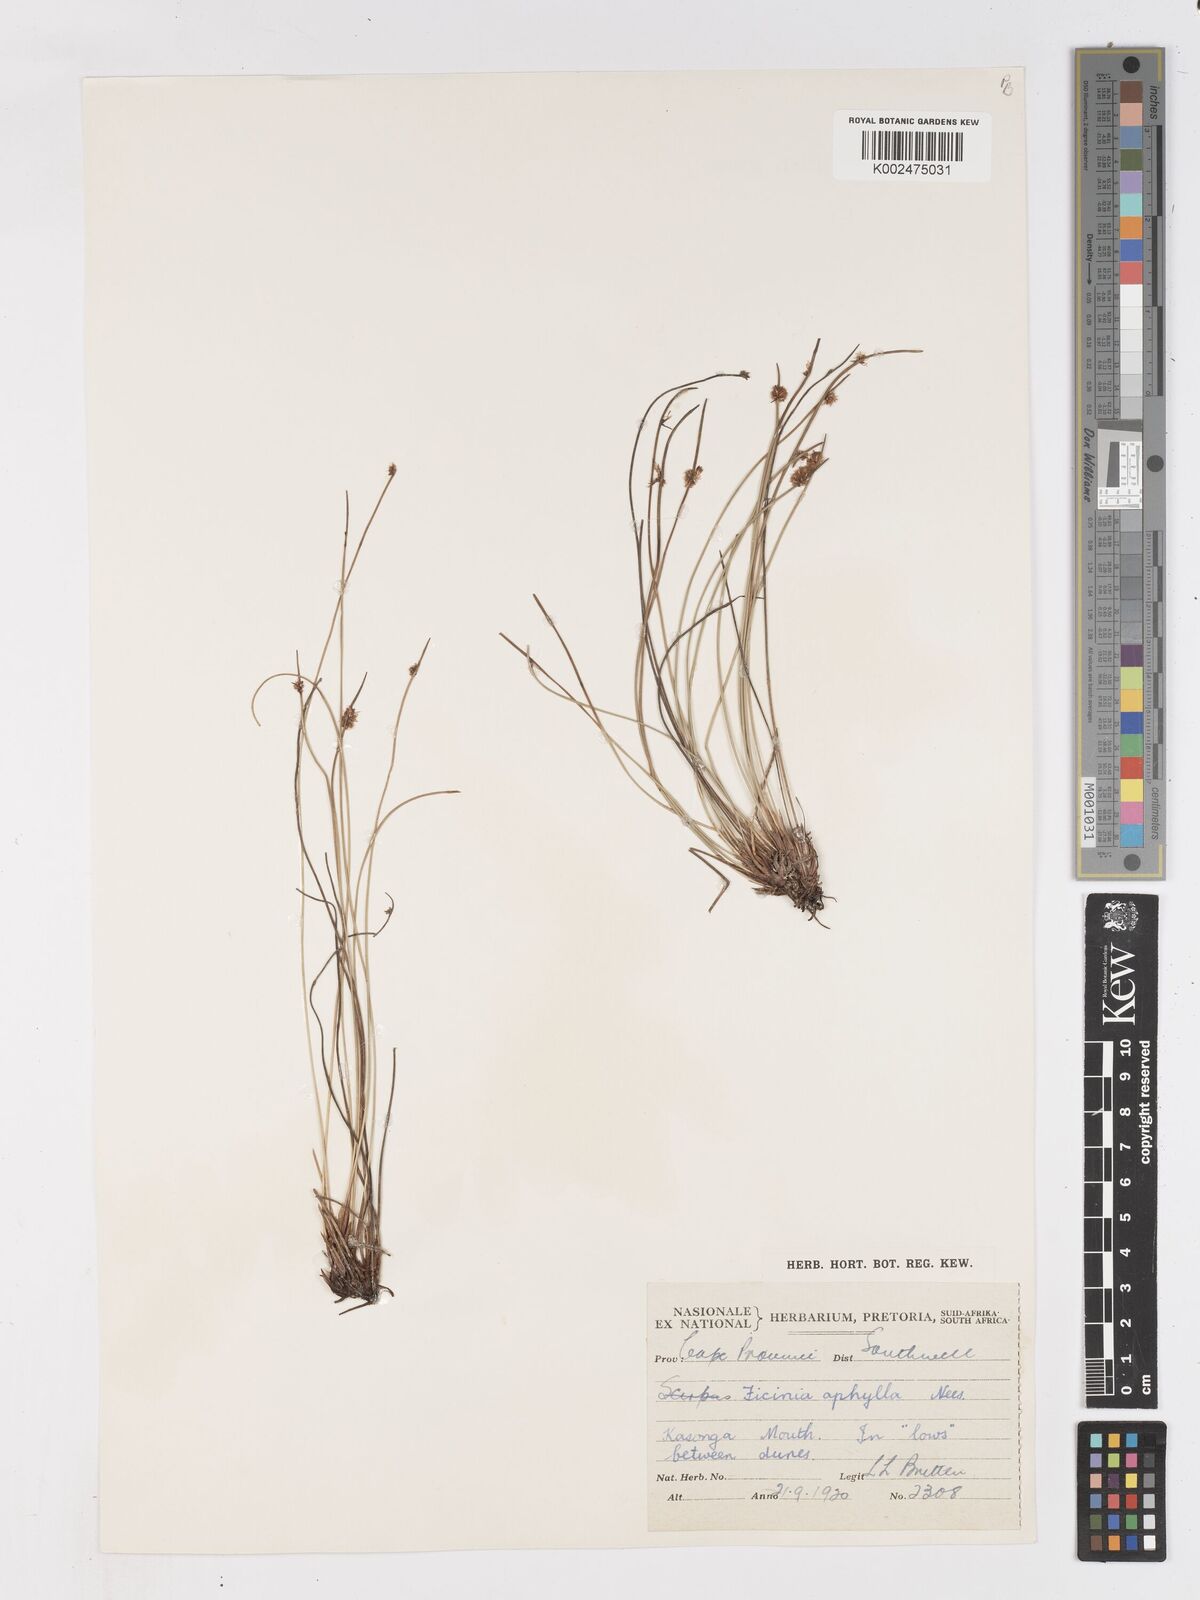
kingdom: Plantae
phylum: Tracheophyta
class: Liliopsida
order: Poales
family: Cyperaceae
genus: Ficinia
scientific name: Ficinia lateralis
